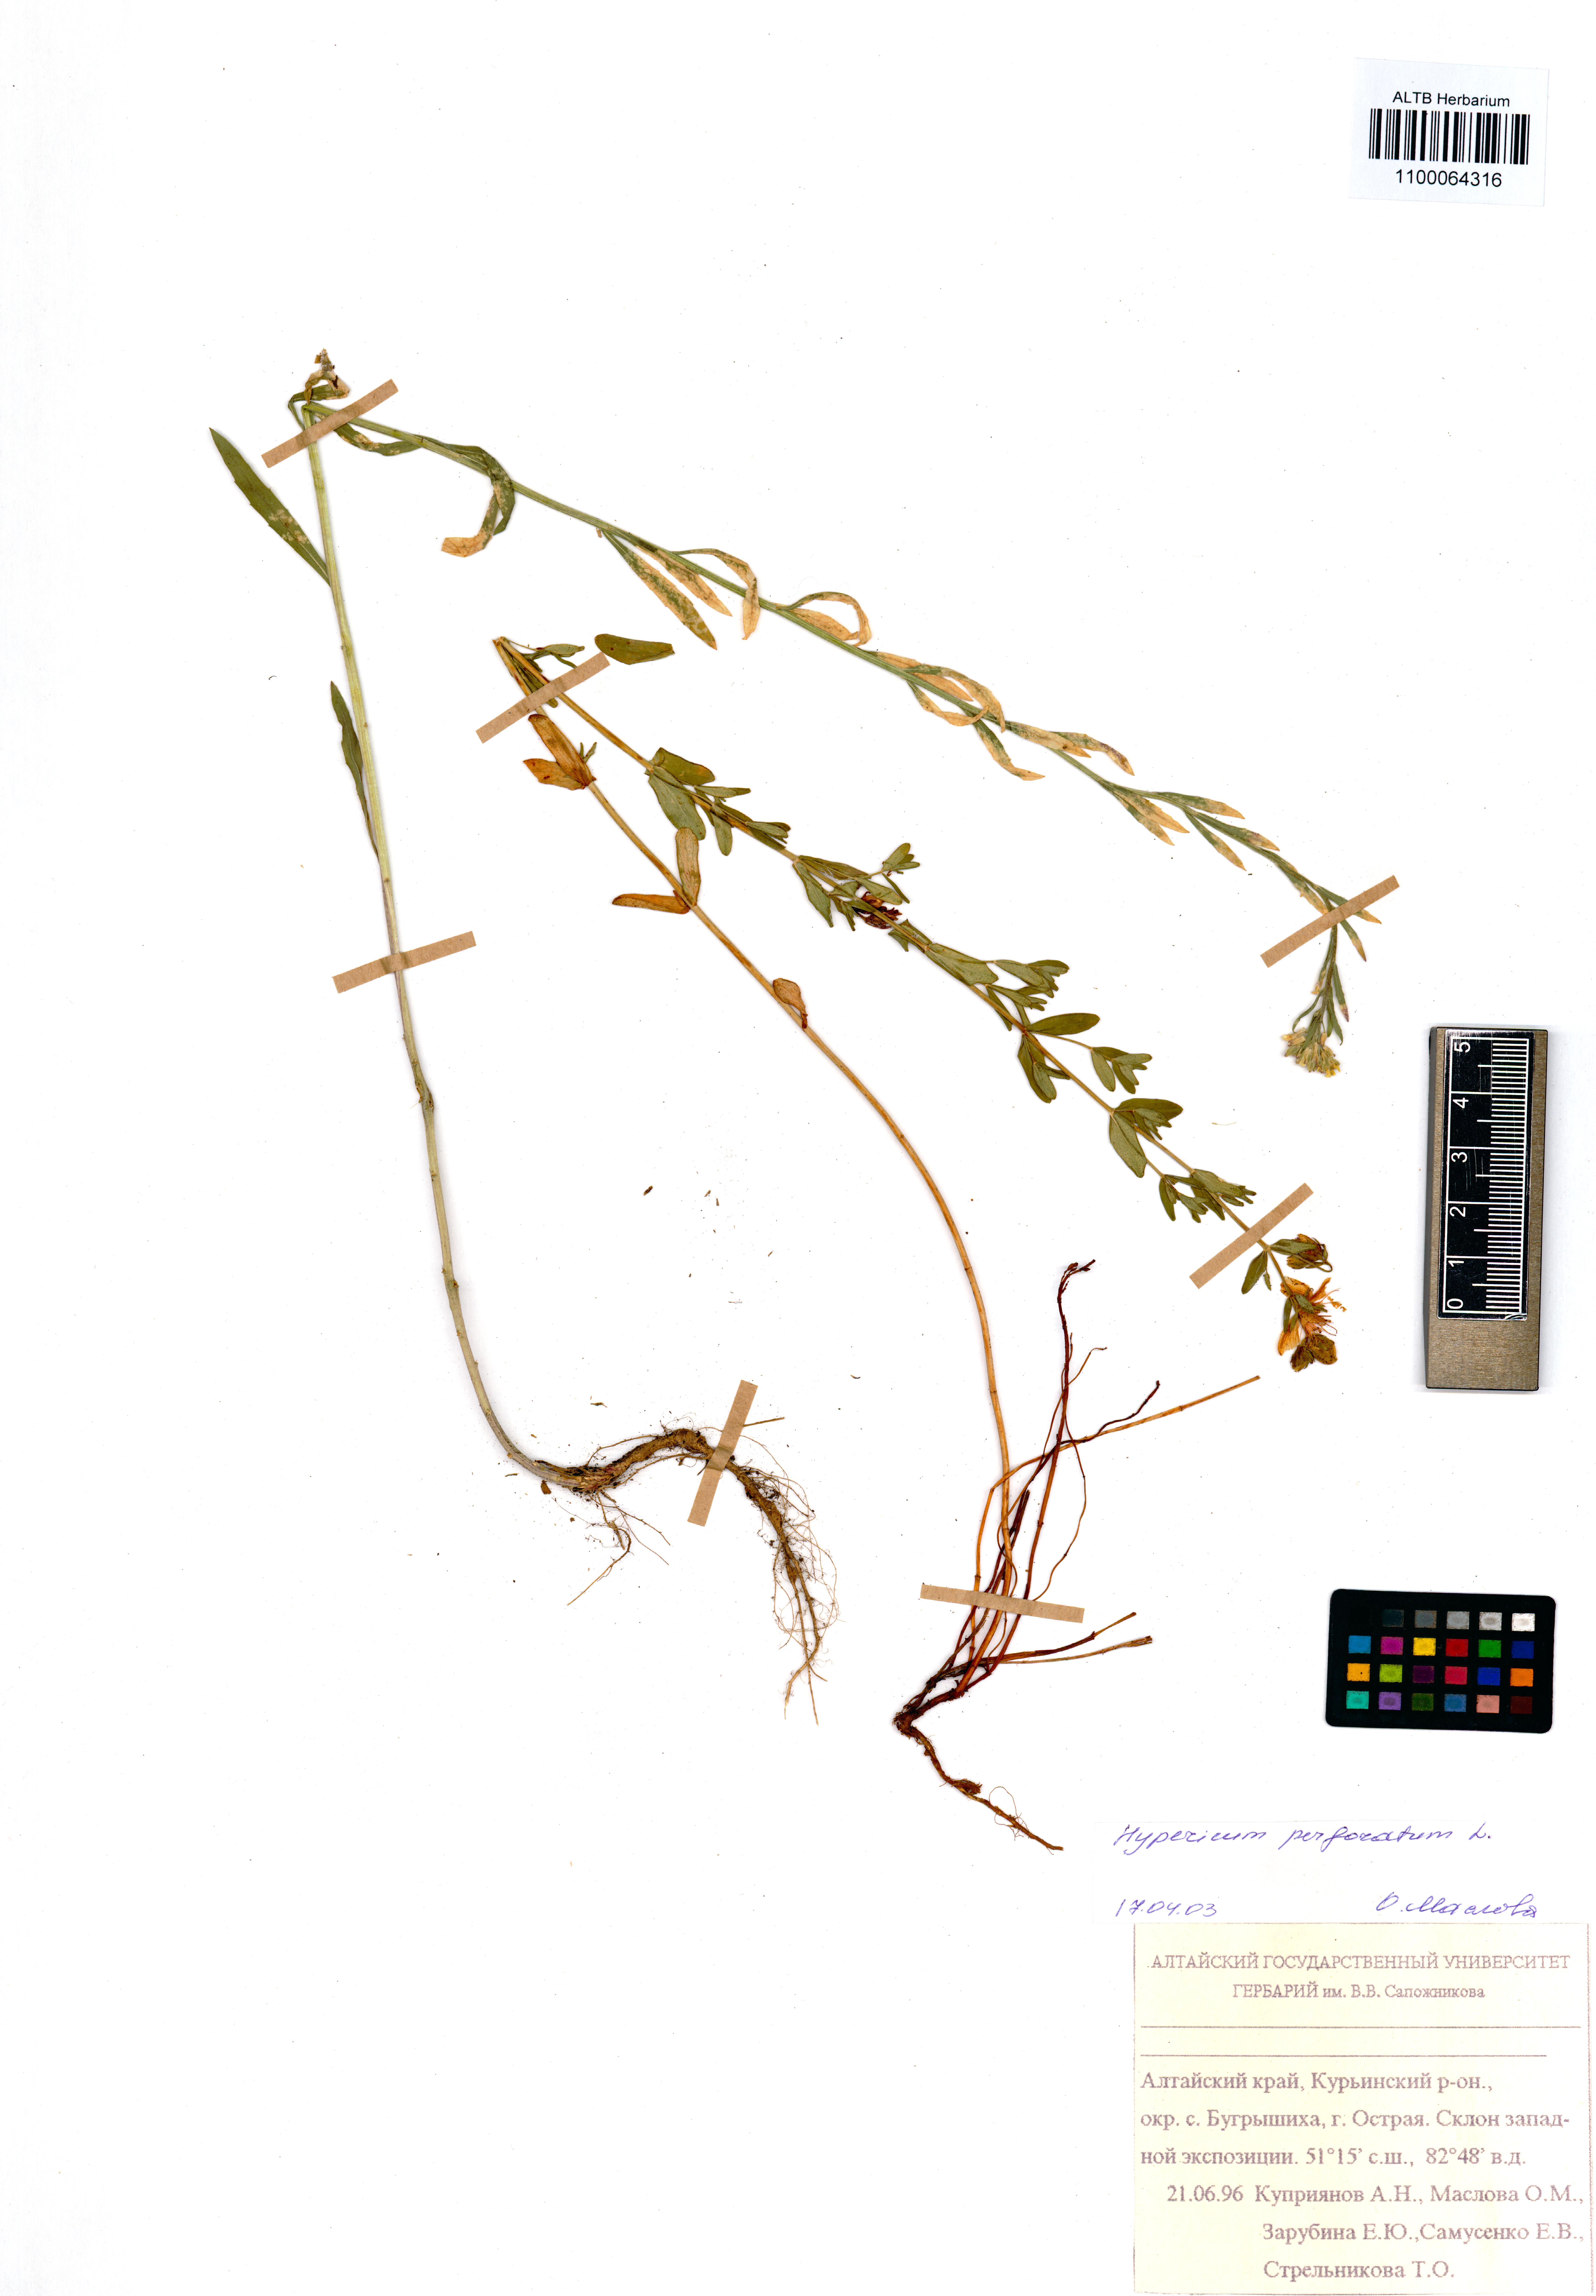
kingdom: Plantae
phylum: Tracheophyta
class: Magnoliopsida
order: Malpighiales
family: Hypericaceae
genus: Hypericum
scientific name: Hypericum perforatum
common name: Common st. johnswort
